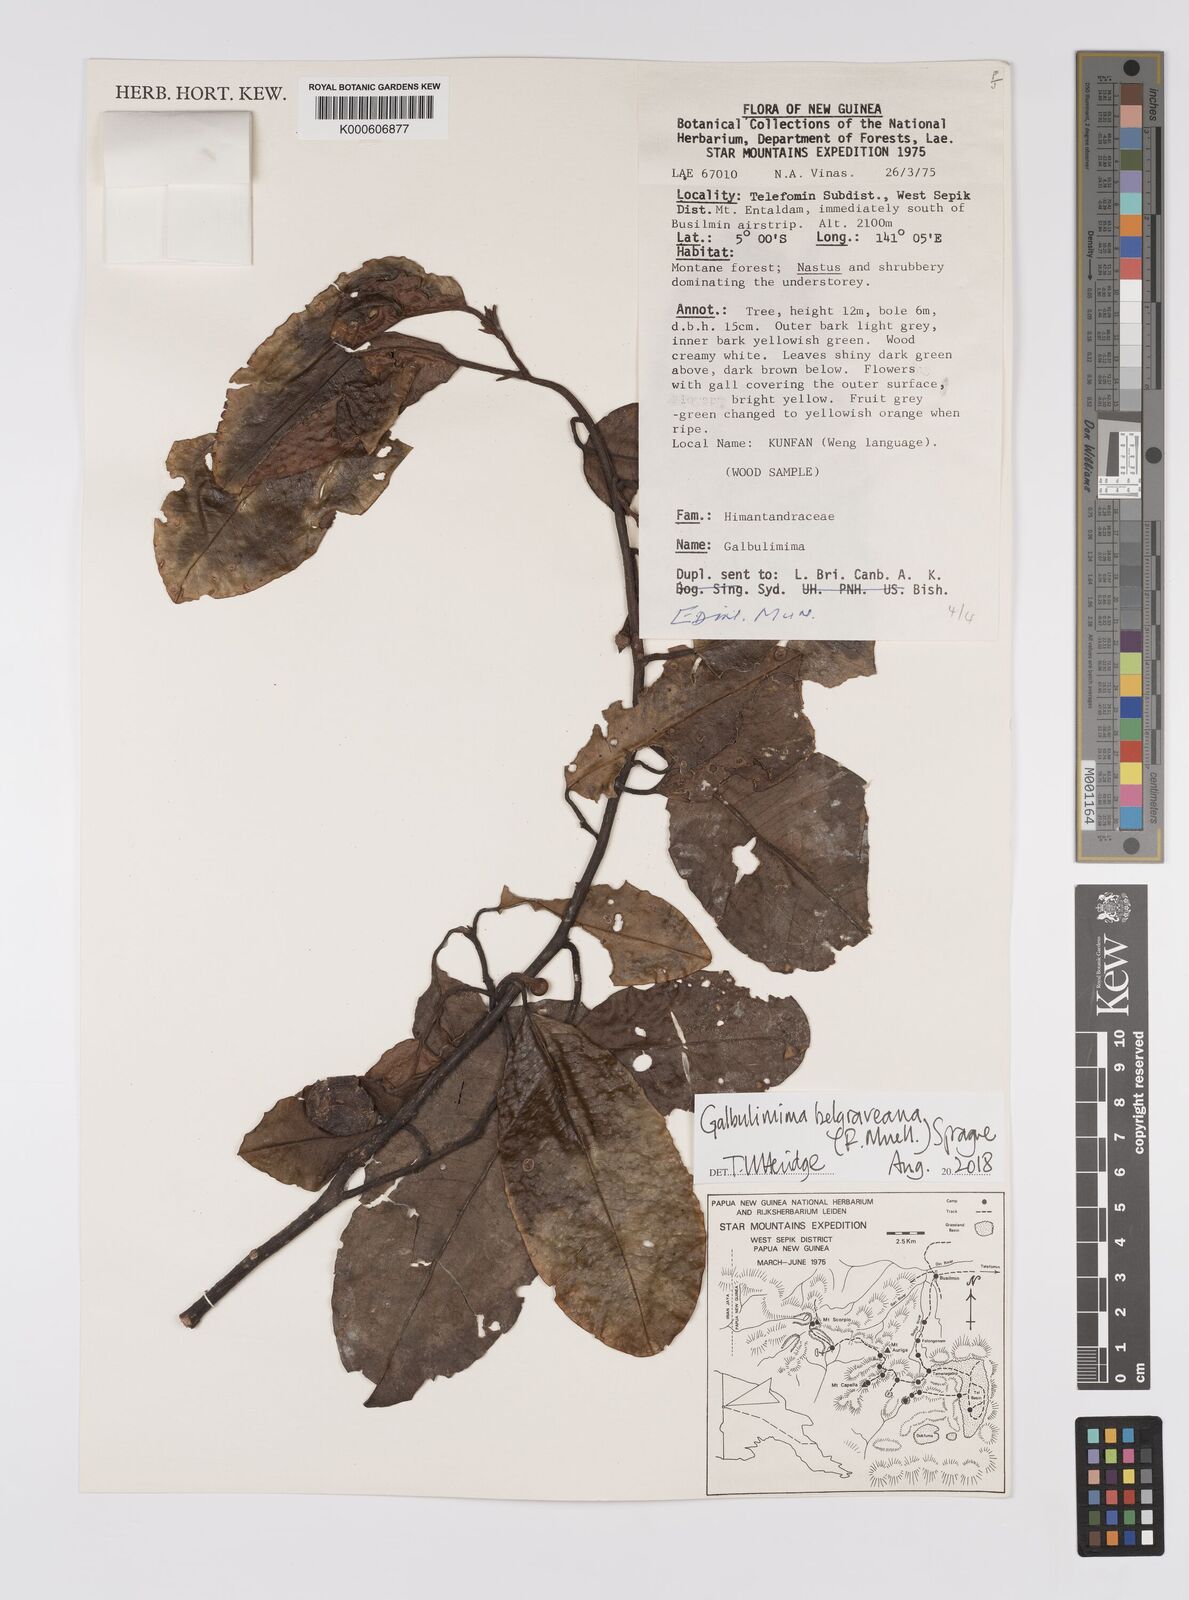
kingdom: Plantae
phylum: Tracheophyta
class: Magnoliopsida
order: Magnoliales
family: Himantandraceae
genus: Galbulimima
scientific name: Galbulimima belgraveana
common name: Northern pigeonberry-ash
